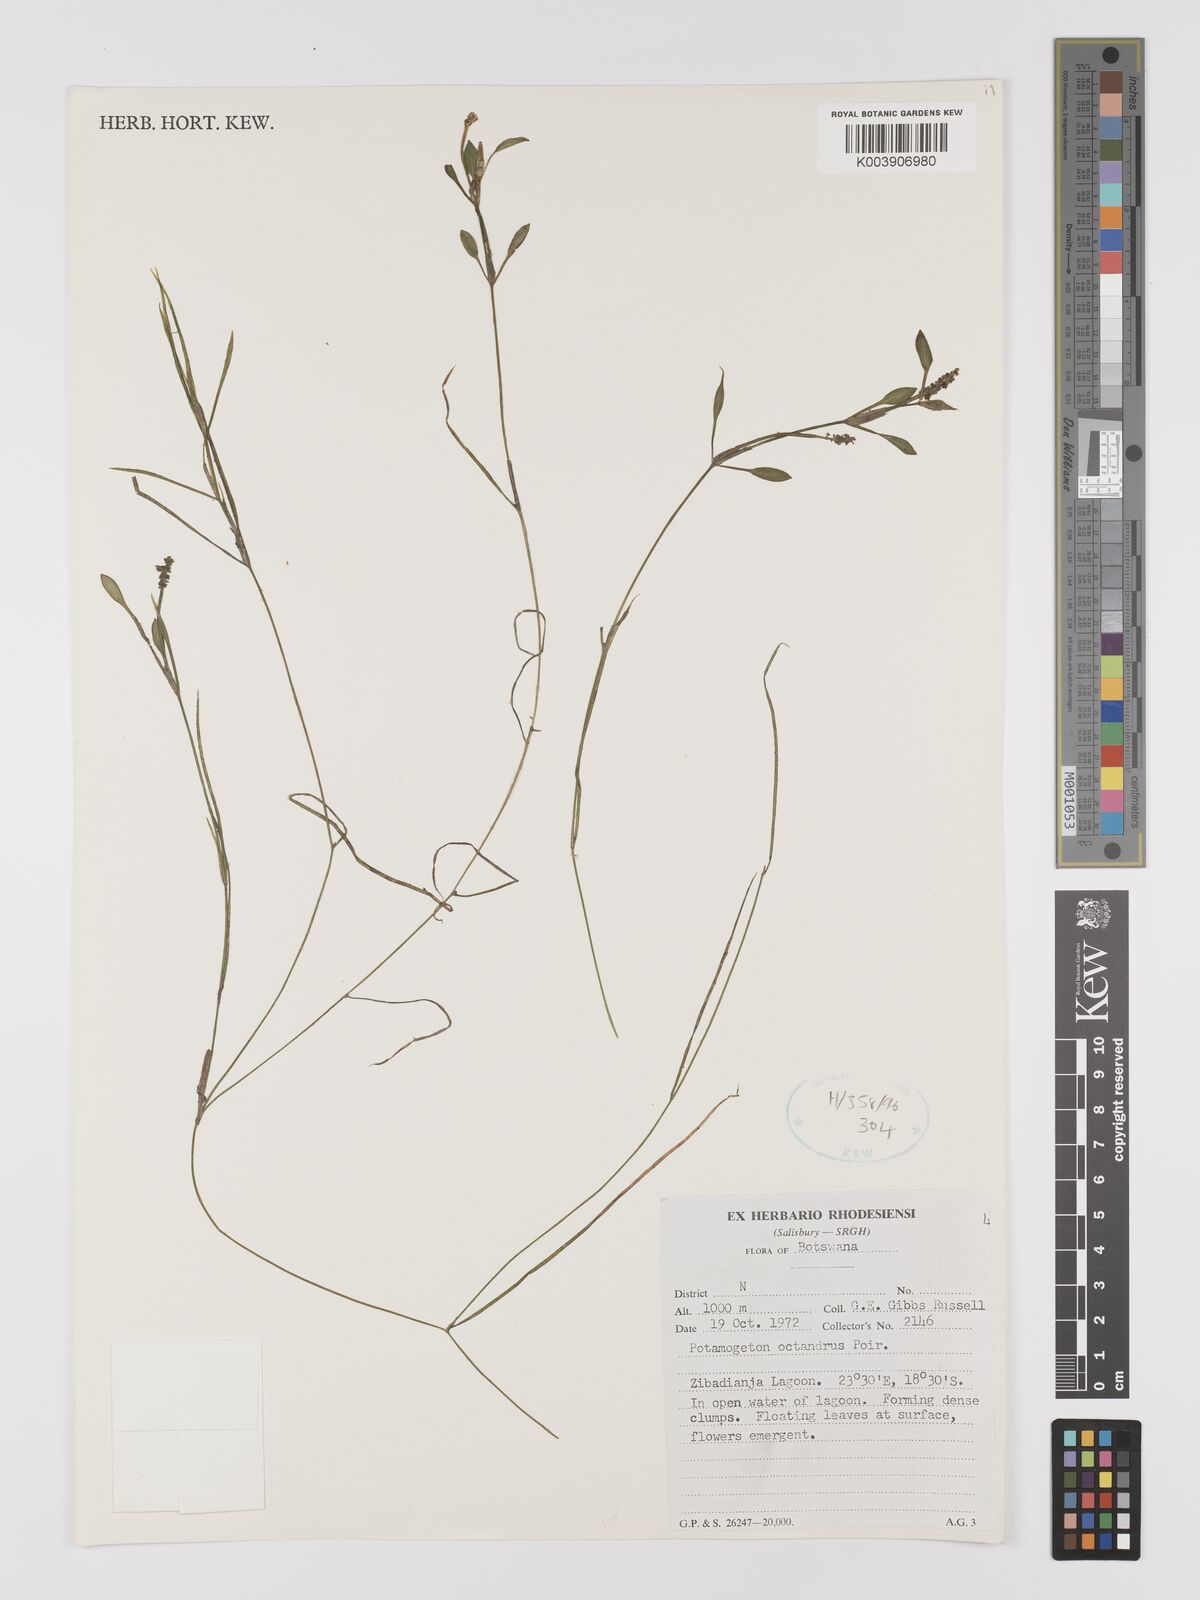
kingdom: Plantae
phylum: Tracheophyta
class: Liliopsida
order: Alismatales
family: Potamogetonaceae
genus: Potamogeton
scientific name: Potamogeton octandrus
